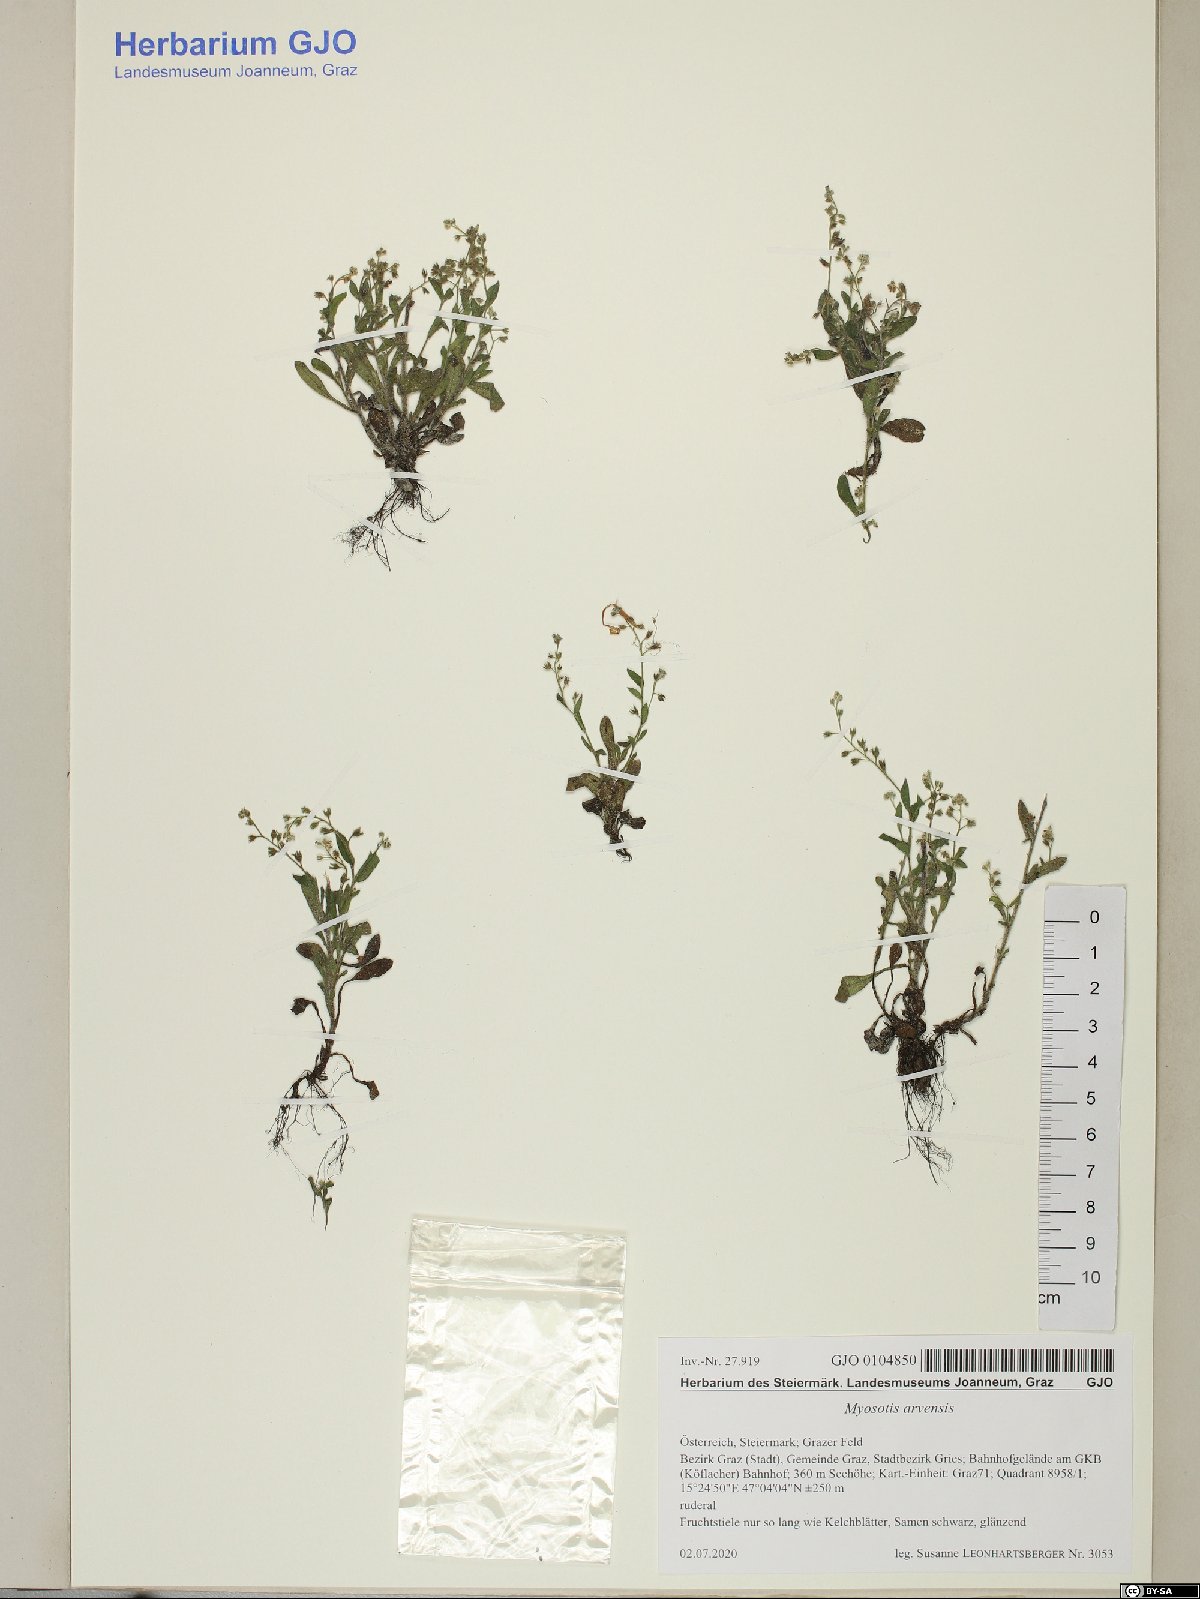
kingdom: Plantae
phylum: Tracheophyta
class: Magnoliopsida
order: Boraginales
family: Boraginaceae
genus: Myosotis
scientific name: Myosotis arvensis
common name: Field forget-me-not
